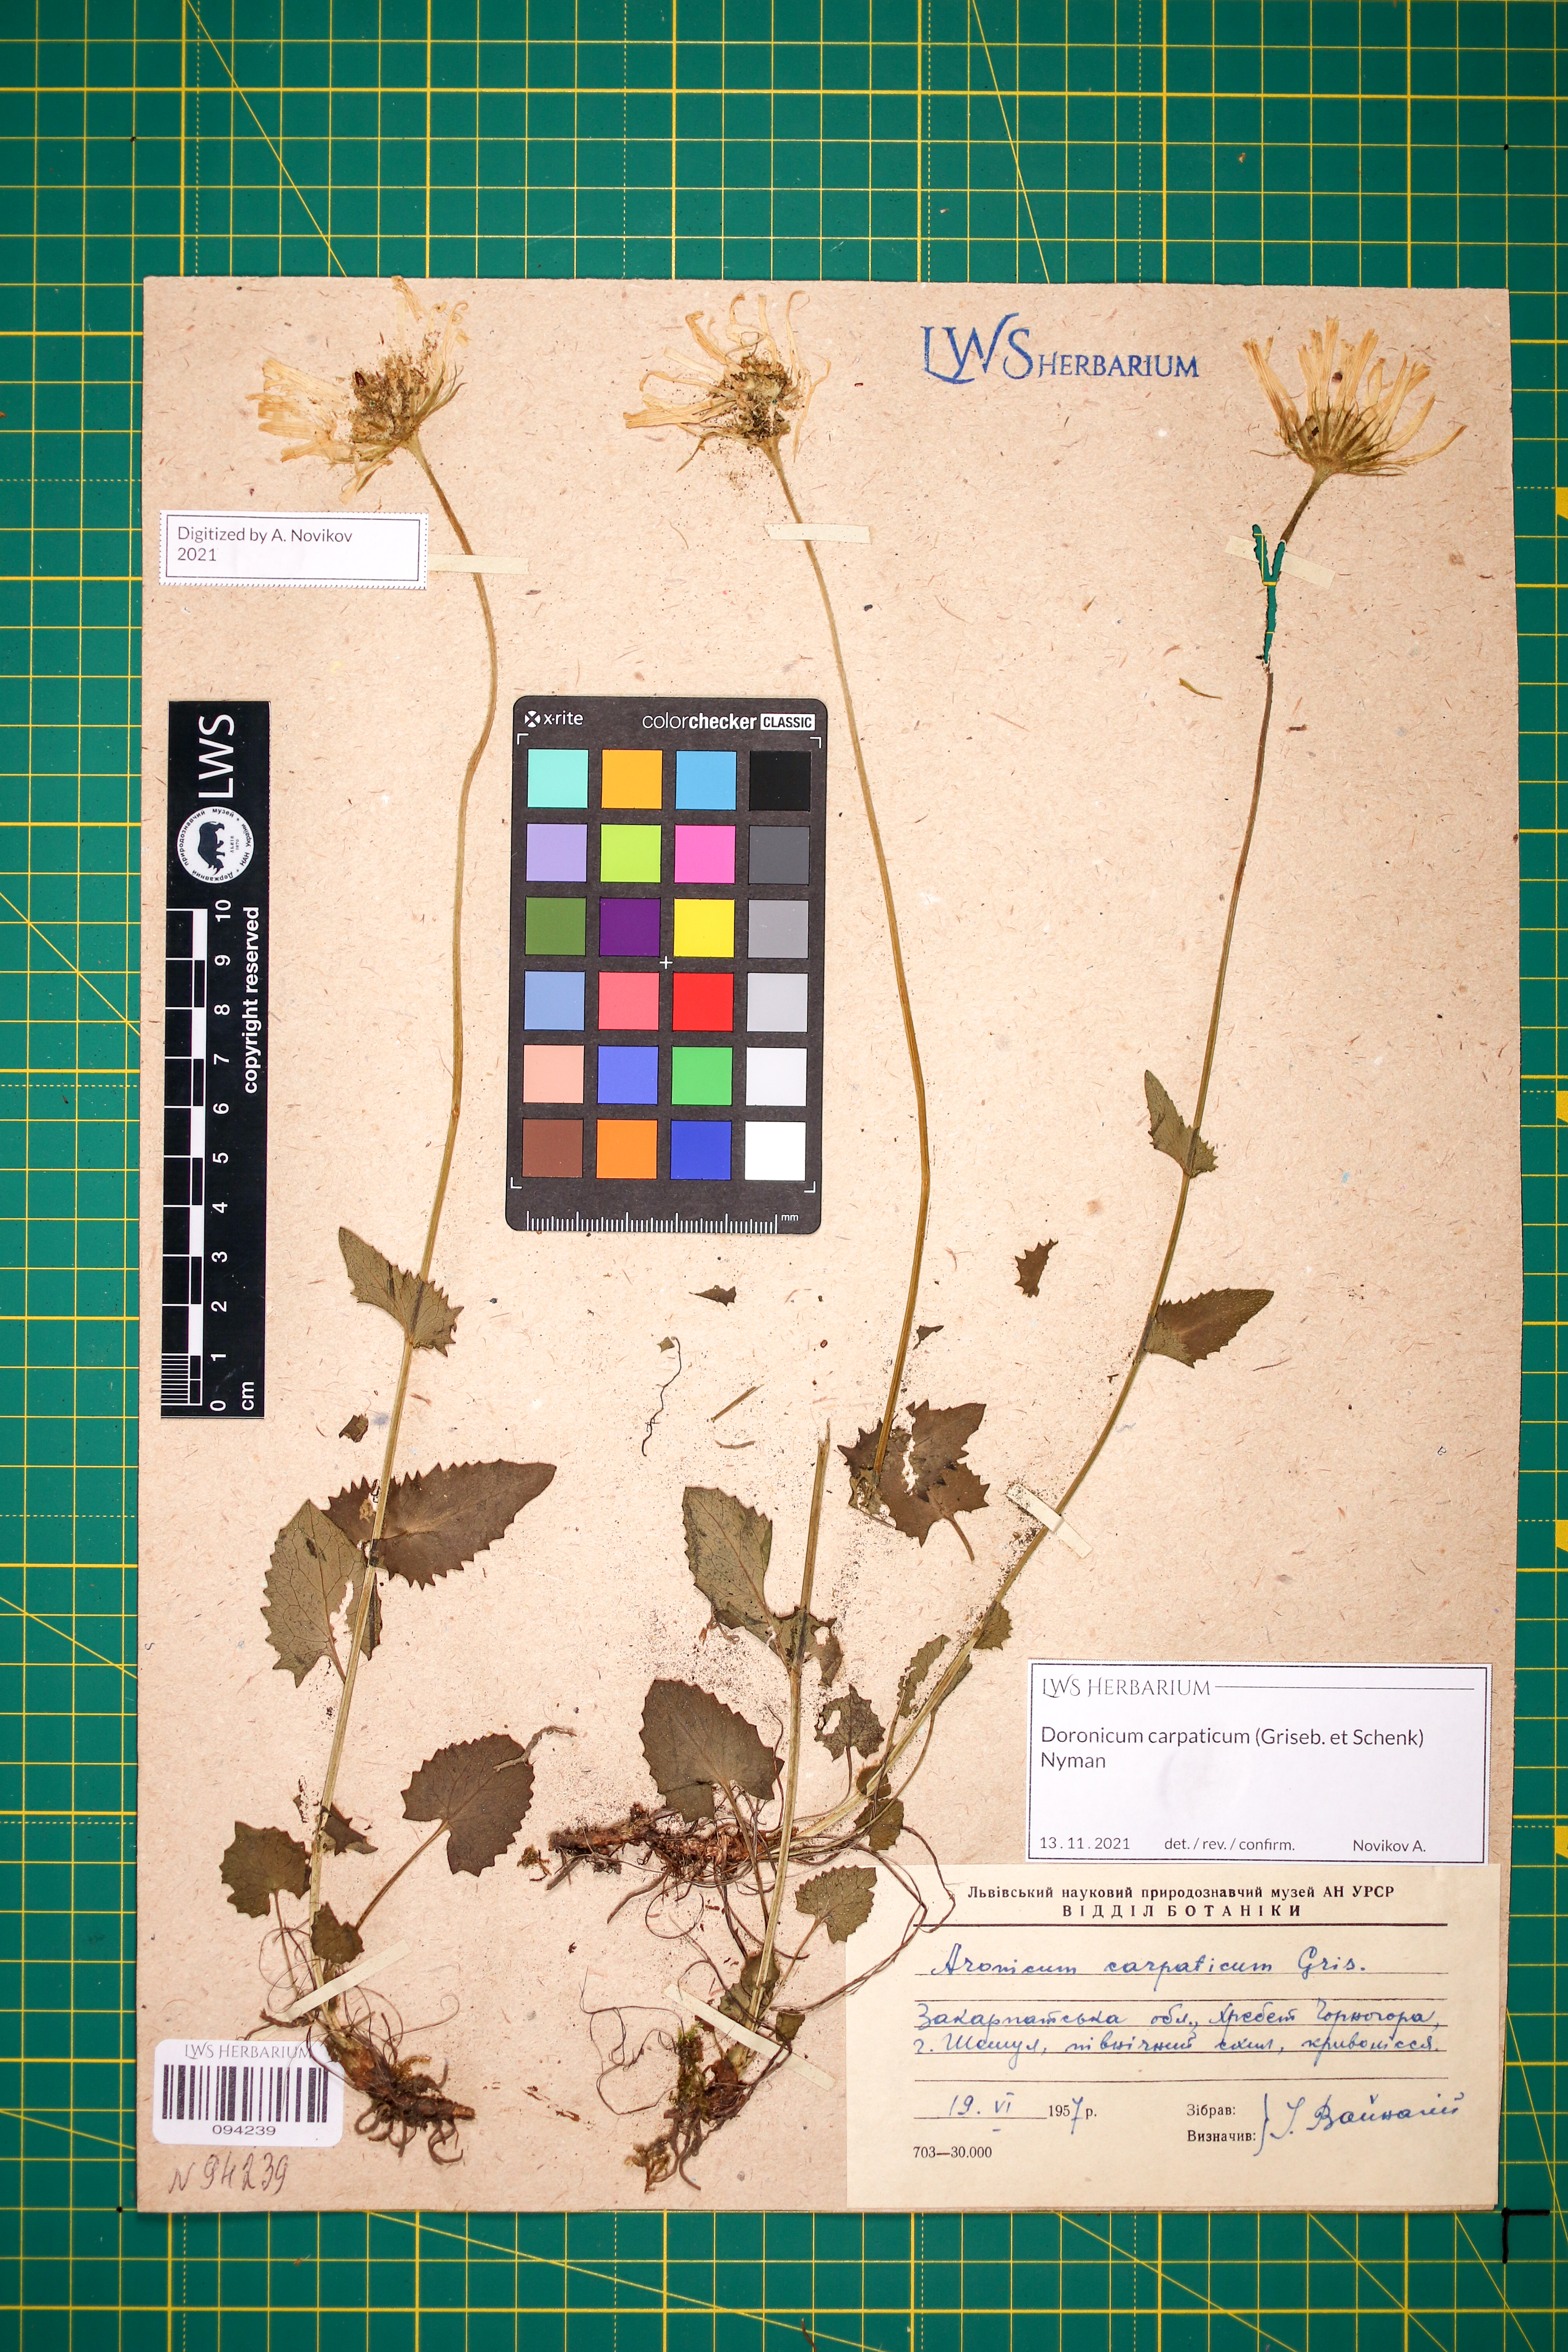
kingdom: Plantae
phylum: Tracheophyta
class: Magnoliopsida
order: Asterales
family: Asteraceae
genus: Doronicum
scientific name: Doronicum carpaticum
